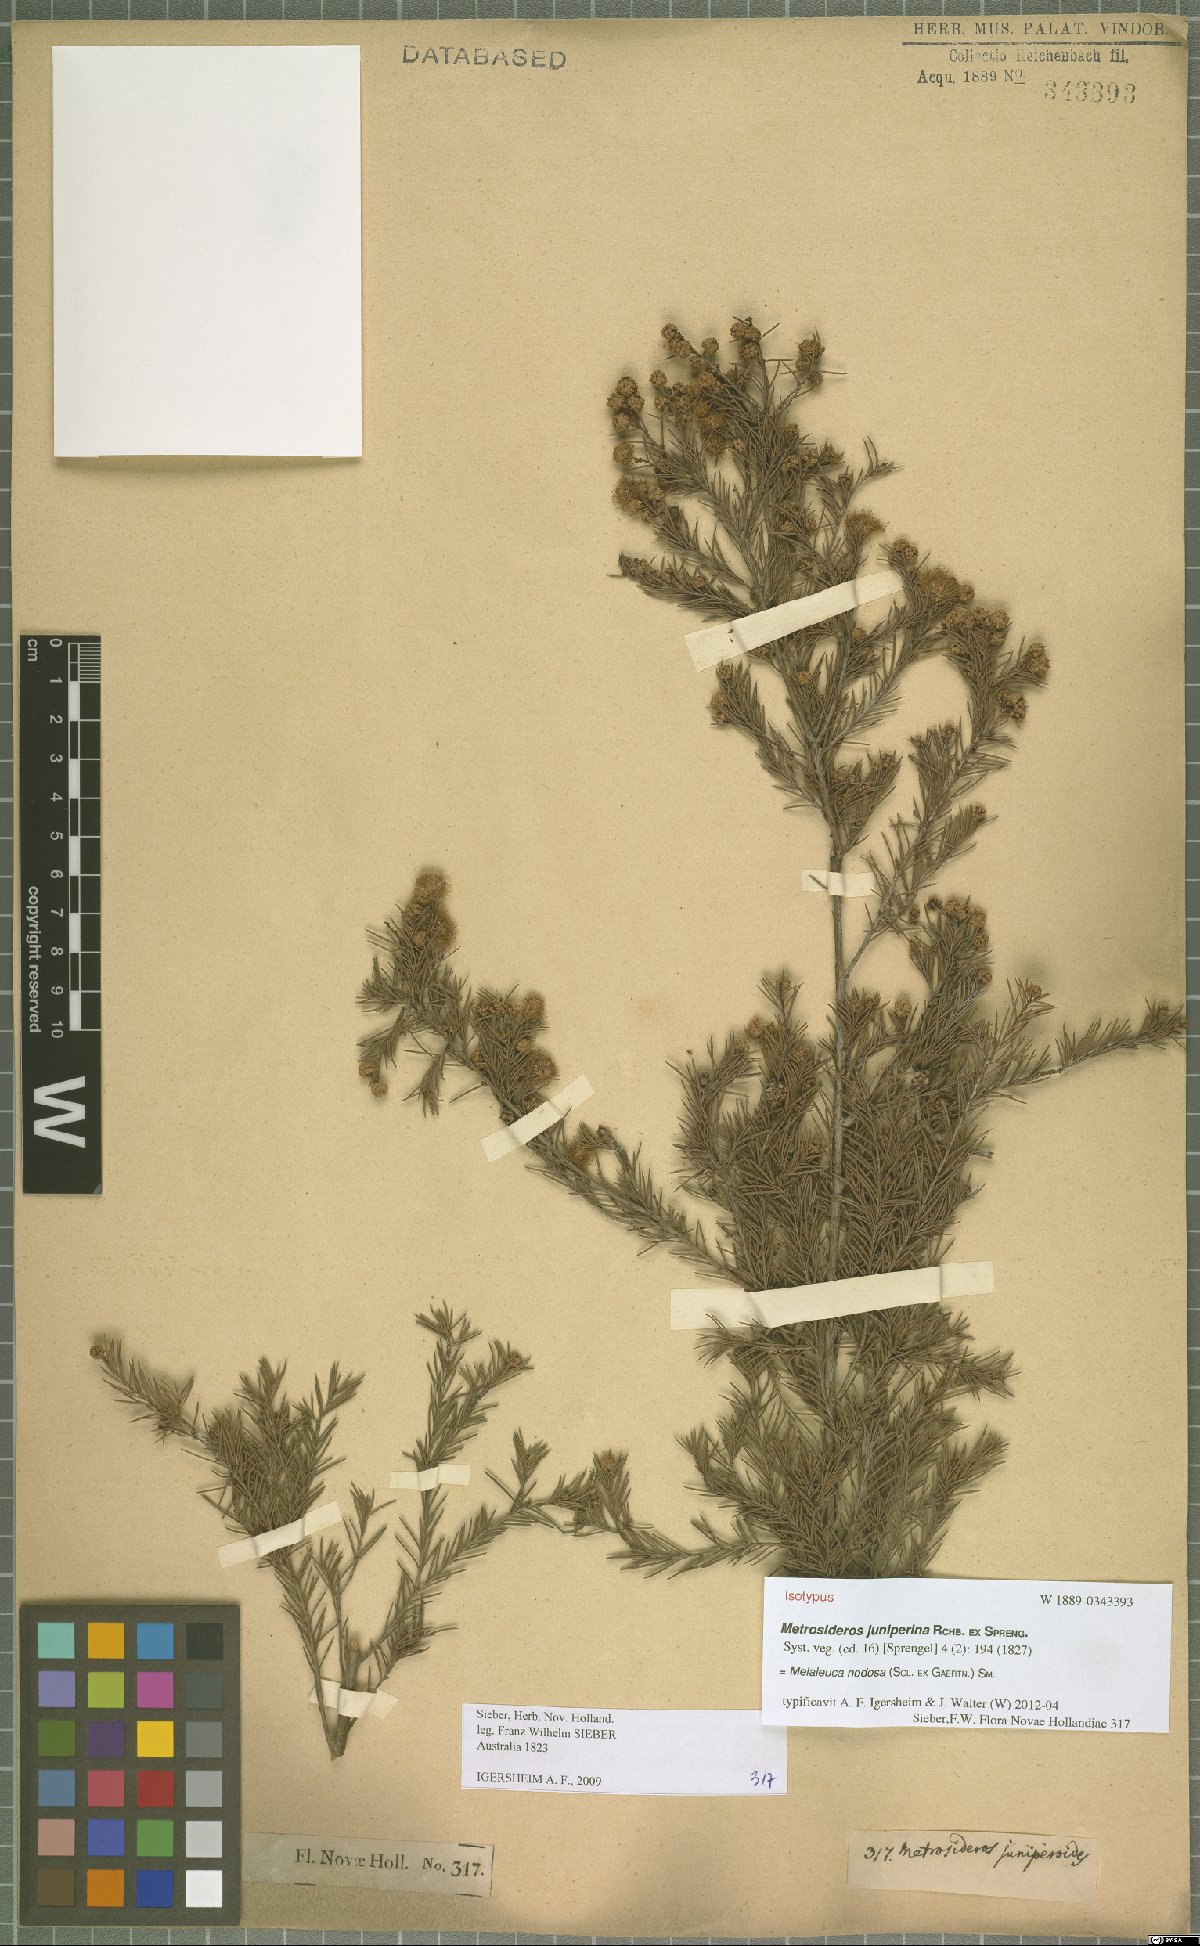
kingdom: Plantae
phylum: Tracheophyta
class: Magnoliopsida
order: Myrtales
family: Myrtaceae
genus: Melaleuca
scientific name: Melaleuca nodosa
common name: Prickly-leaf paperbark
